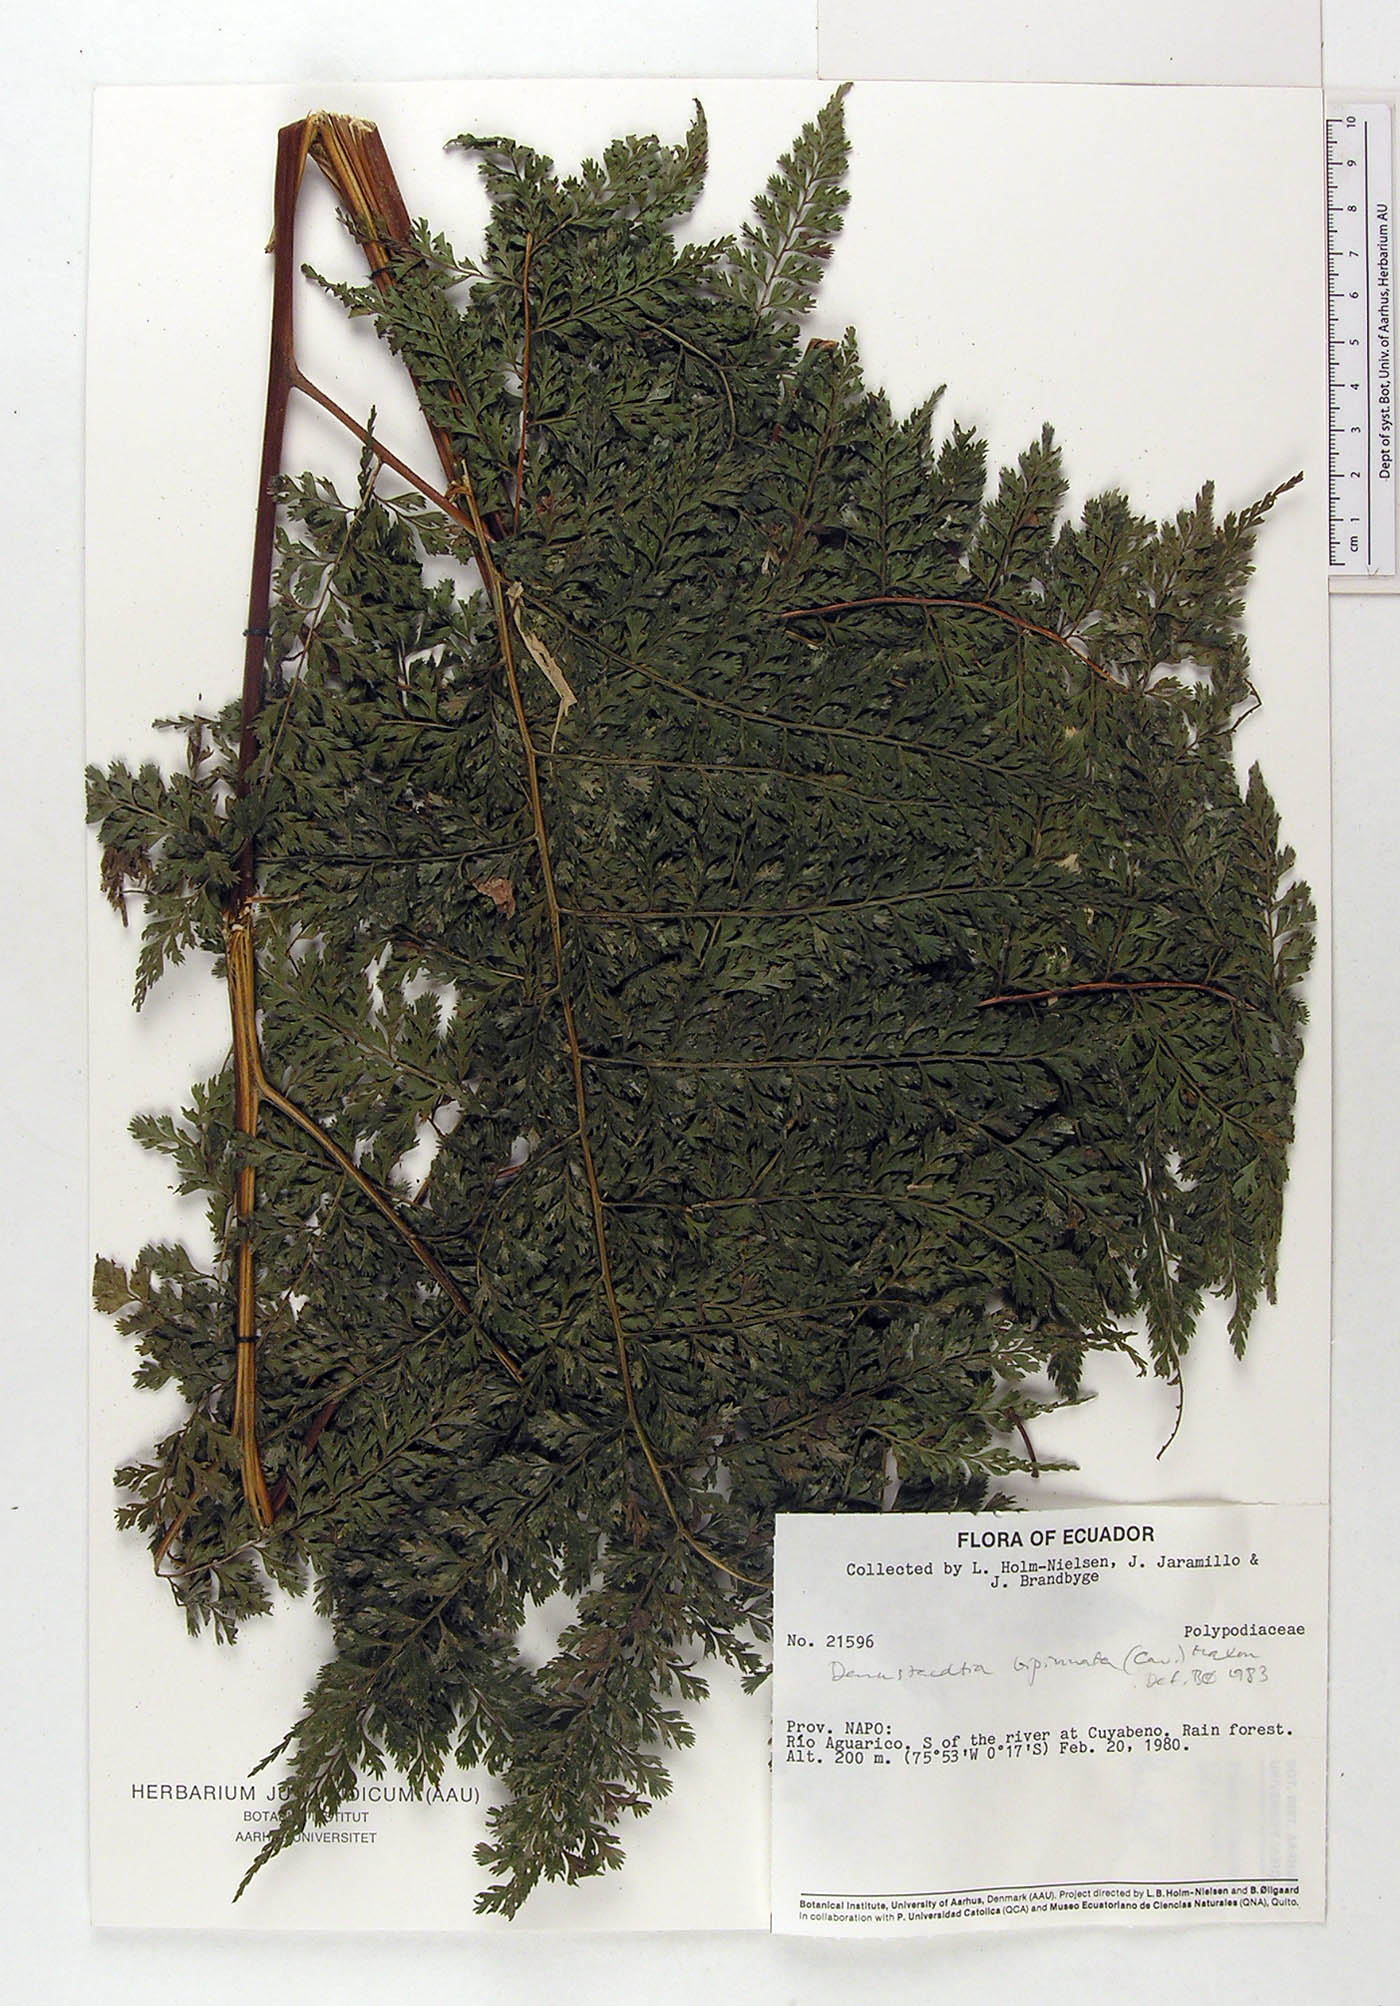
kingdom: Plantae
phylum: Tracheophyta
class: Polypodiopsida
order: Polypodiales
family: Dennstaedtiaceae
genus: Mucura
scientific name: Mucura bipinnata
